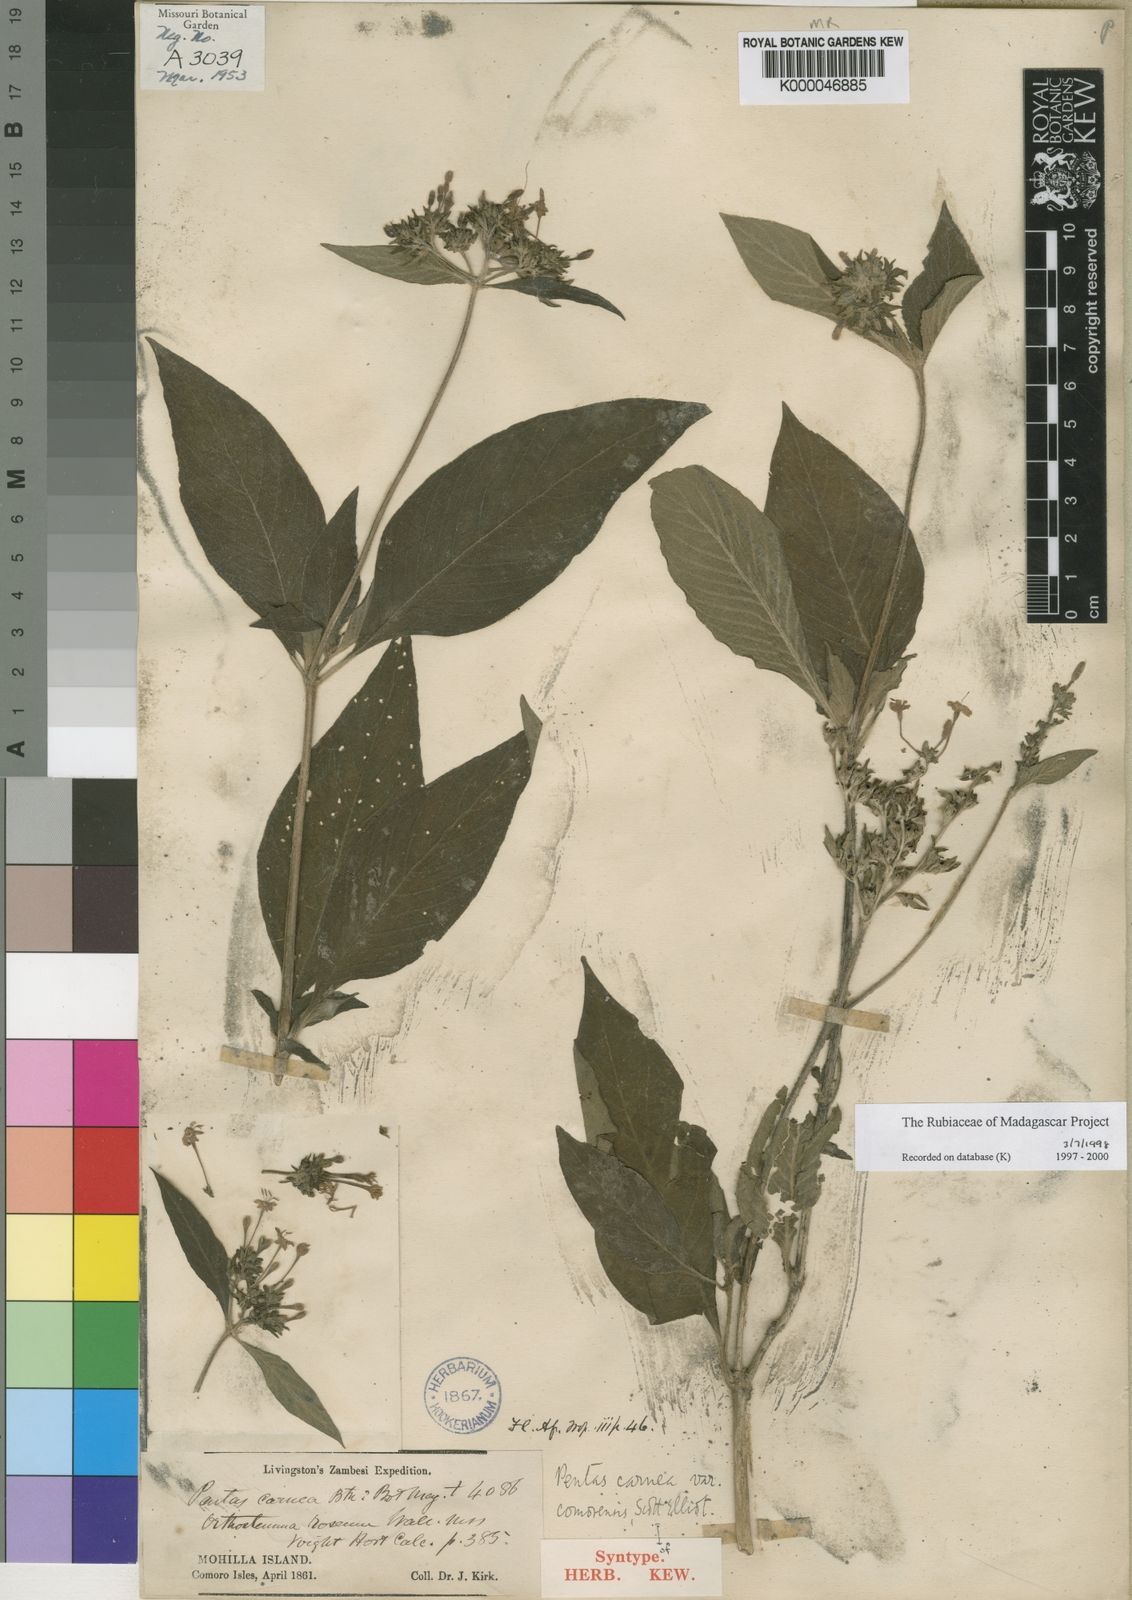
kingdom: Plantae
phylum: Tracheophyta
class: Magnoliopsida
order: Gentianales
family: Rubiaceae
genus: Pentas
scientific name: Pentas lanceolata
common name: Egyptian starcluster
